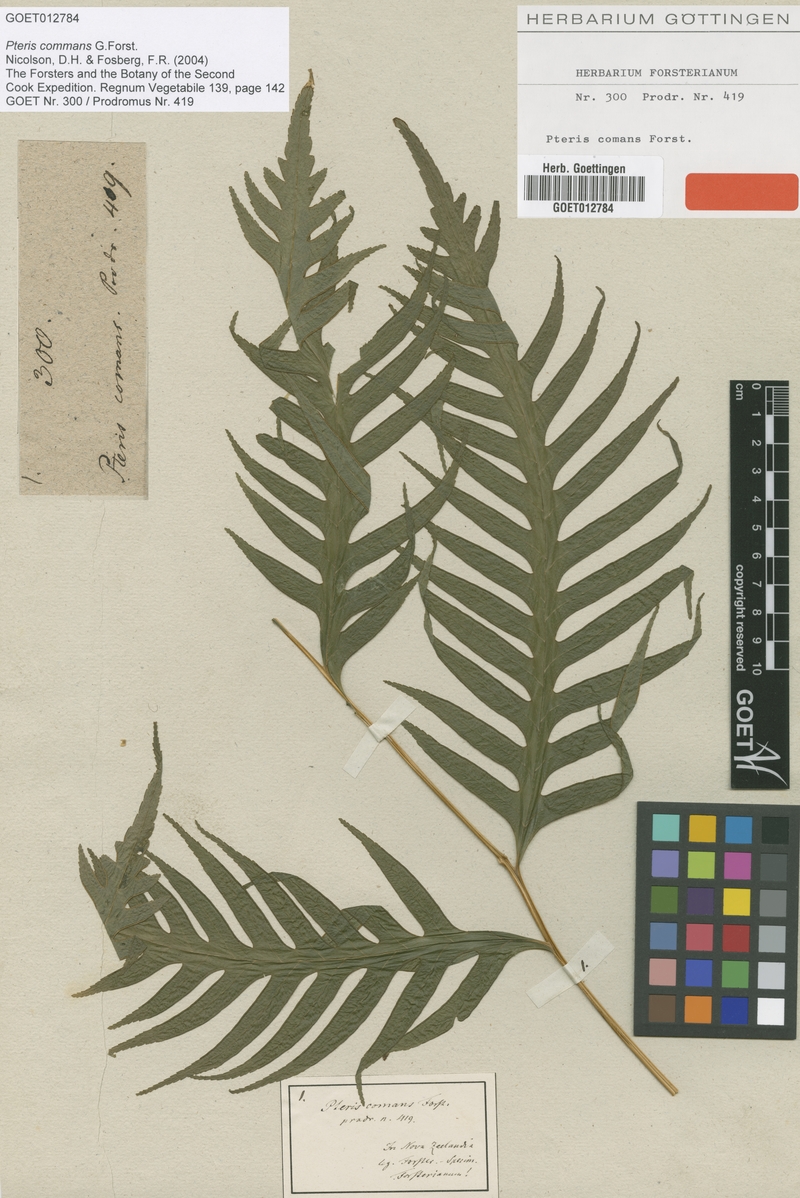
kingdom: Plantae
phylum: Tracheophyta
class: Polypodiopsida
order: Polypodiales
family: Pteridaceae
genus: Pteris
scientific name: Pteris comans
